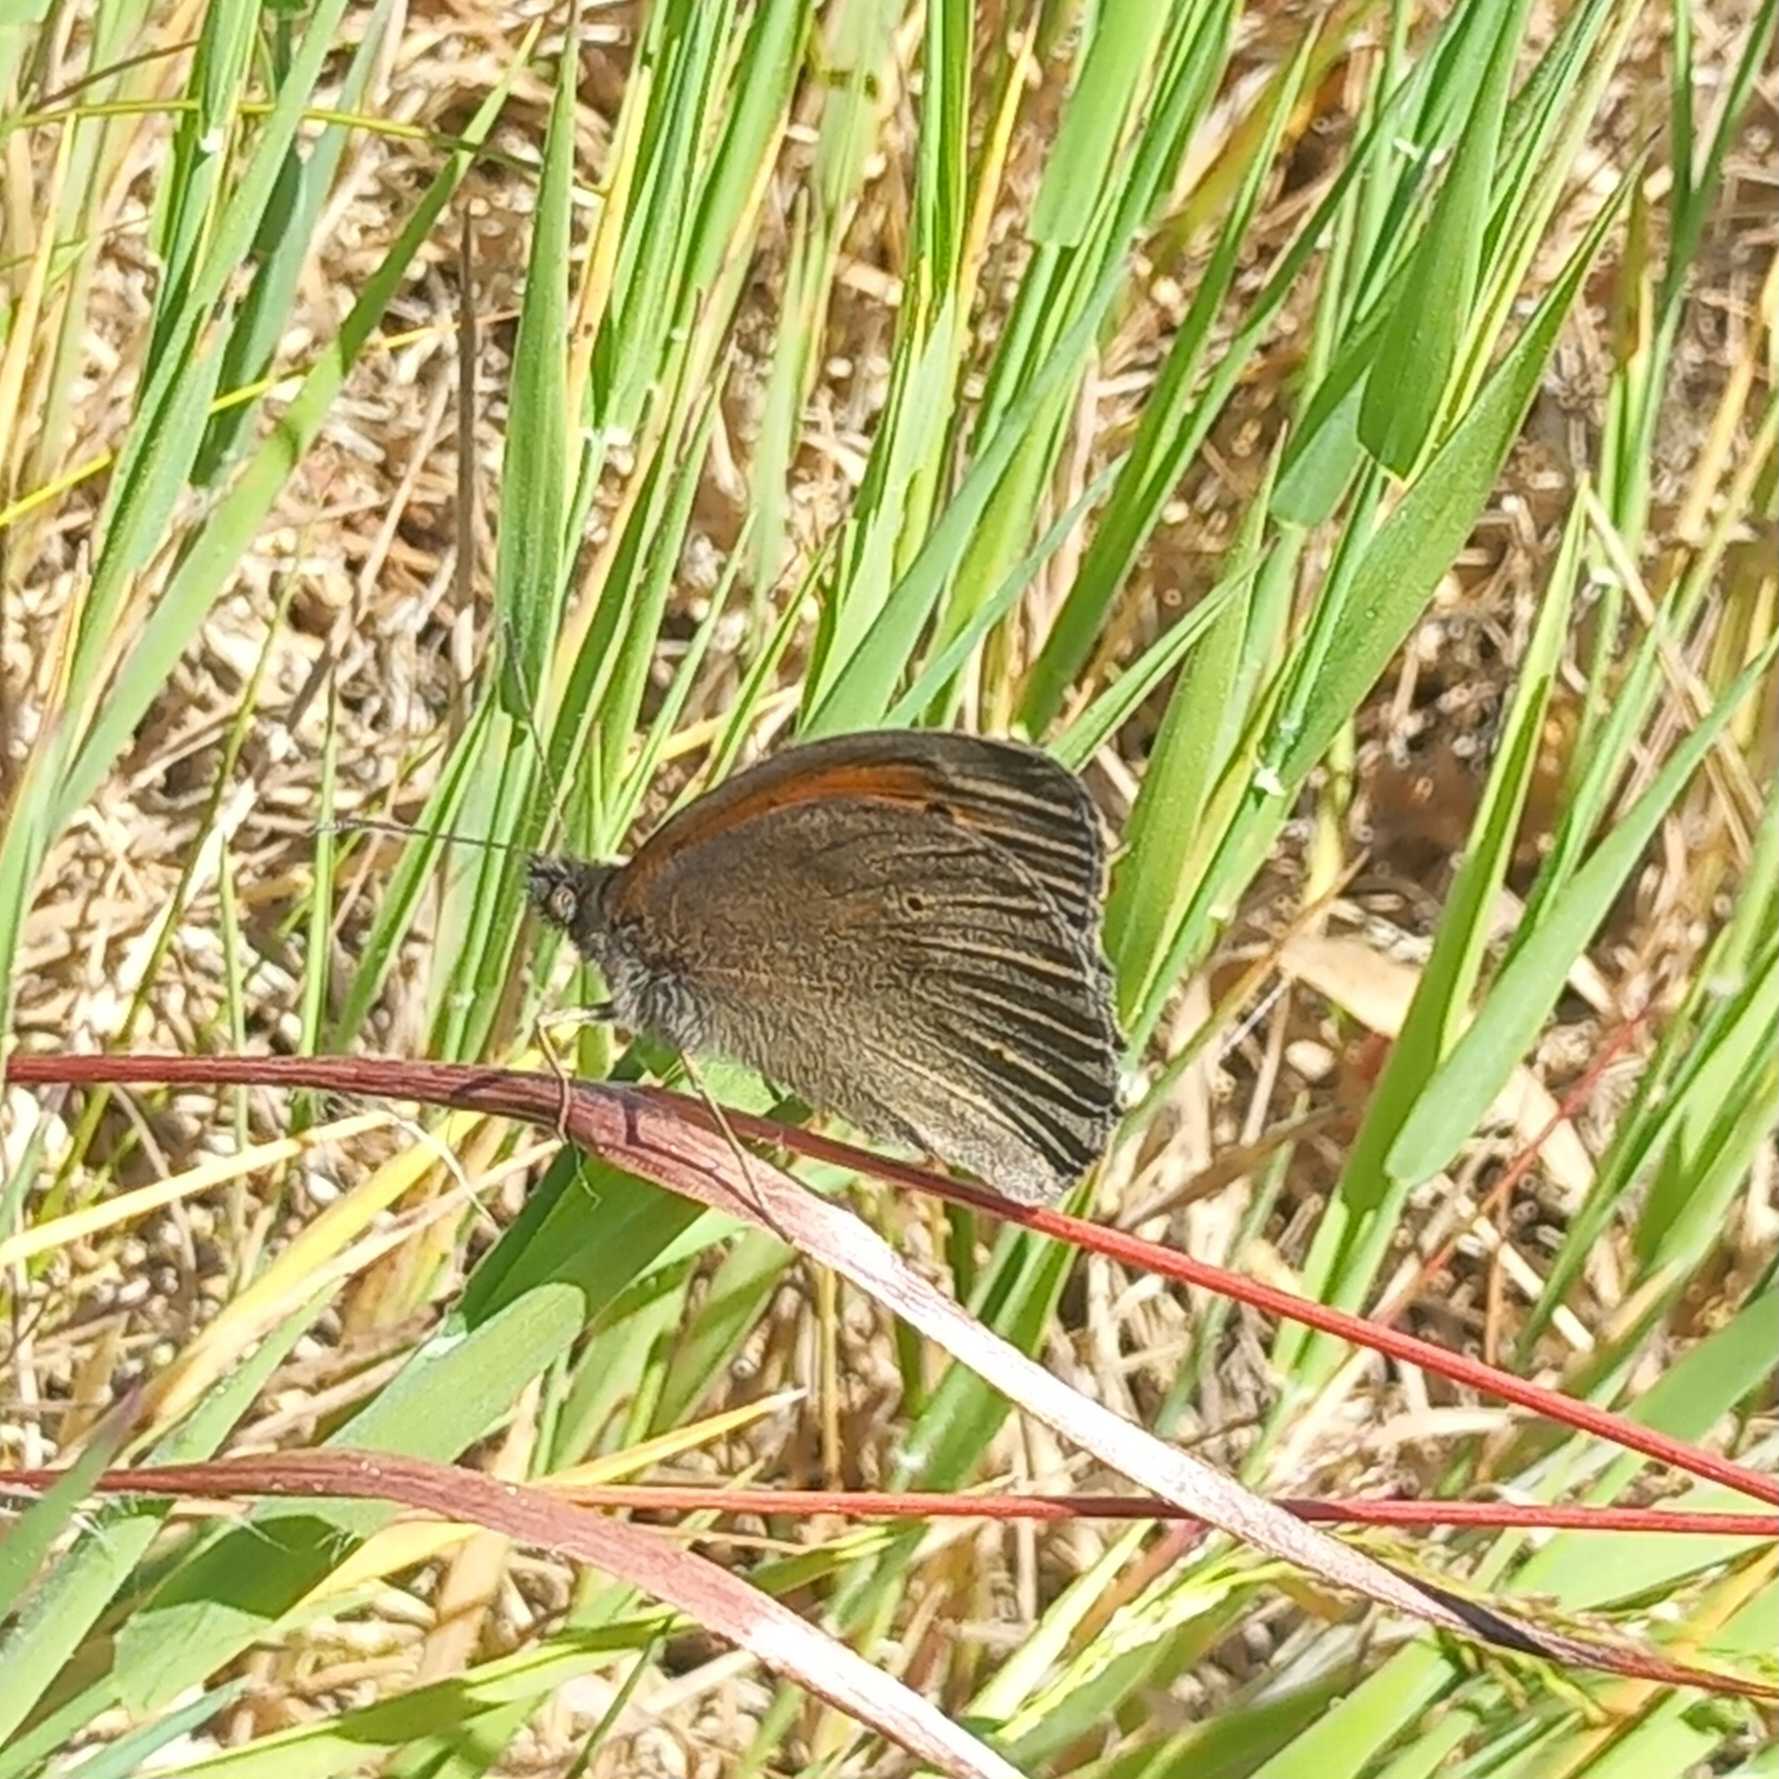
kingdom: Animalia
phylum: Arthropoda
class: Insecta
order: Lepidoptera
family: Nymphalidae
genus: Maniola
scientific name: Maniola jurtina
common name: Græsrandøje
